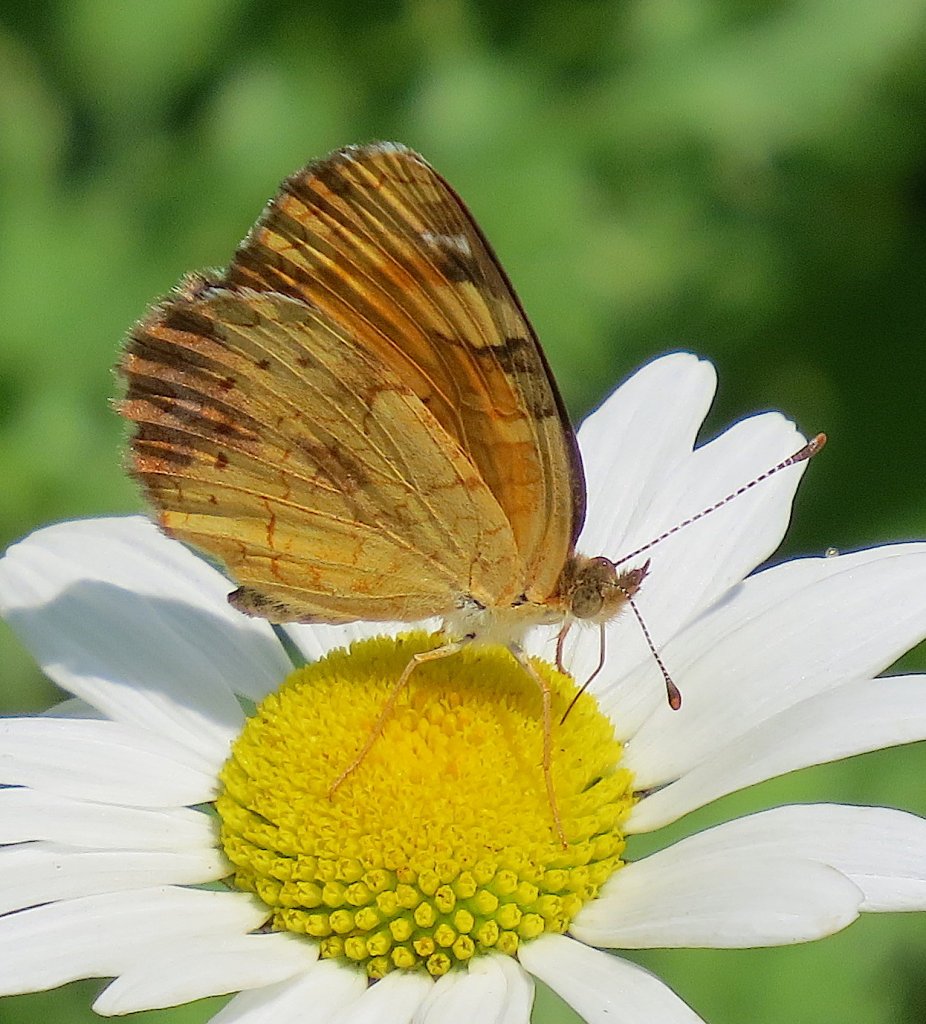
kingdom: Animalia
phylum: Arthropoda
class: Insecta
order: Lepidoptera
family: Nymphalidae
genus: Phyciodes
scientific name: Phyciodes tharos
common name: Northern Crescent
